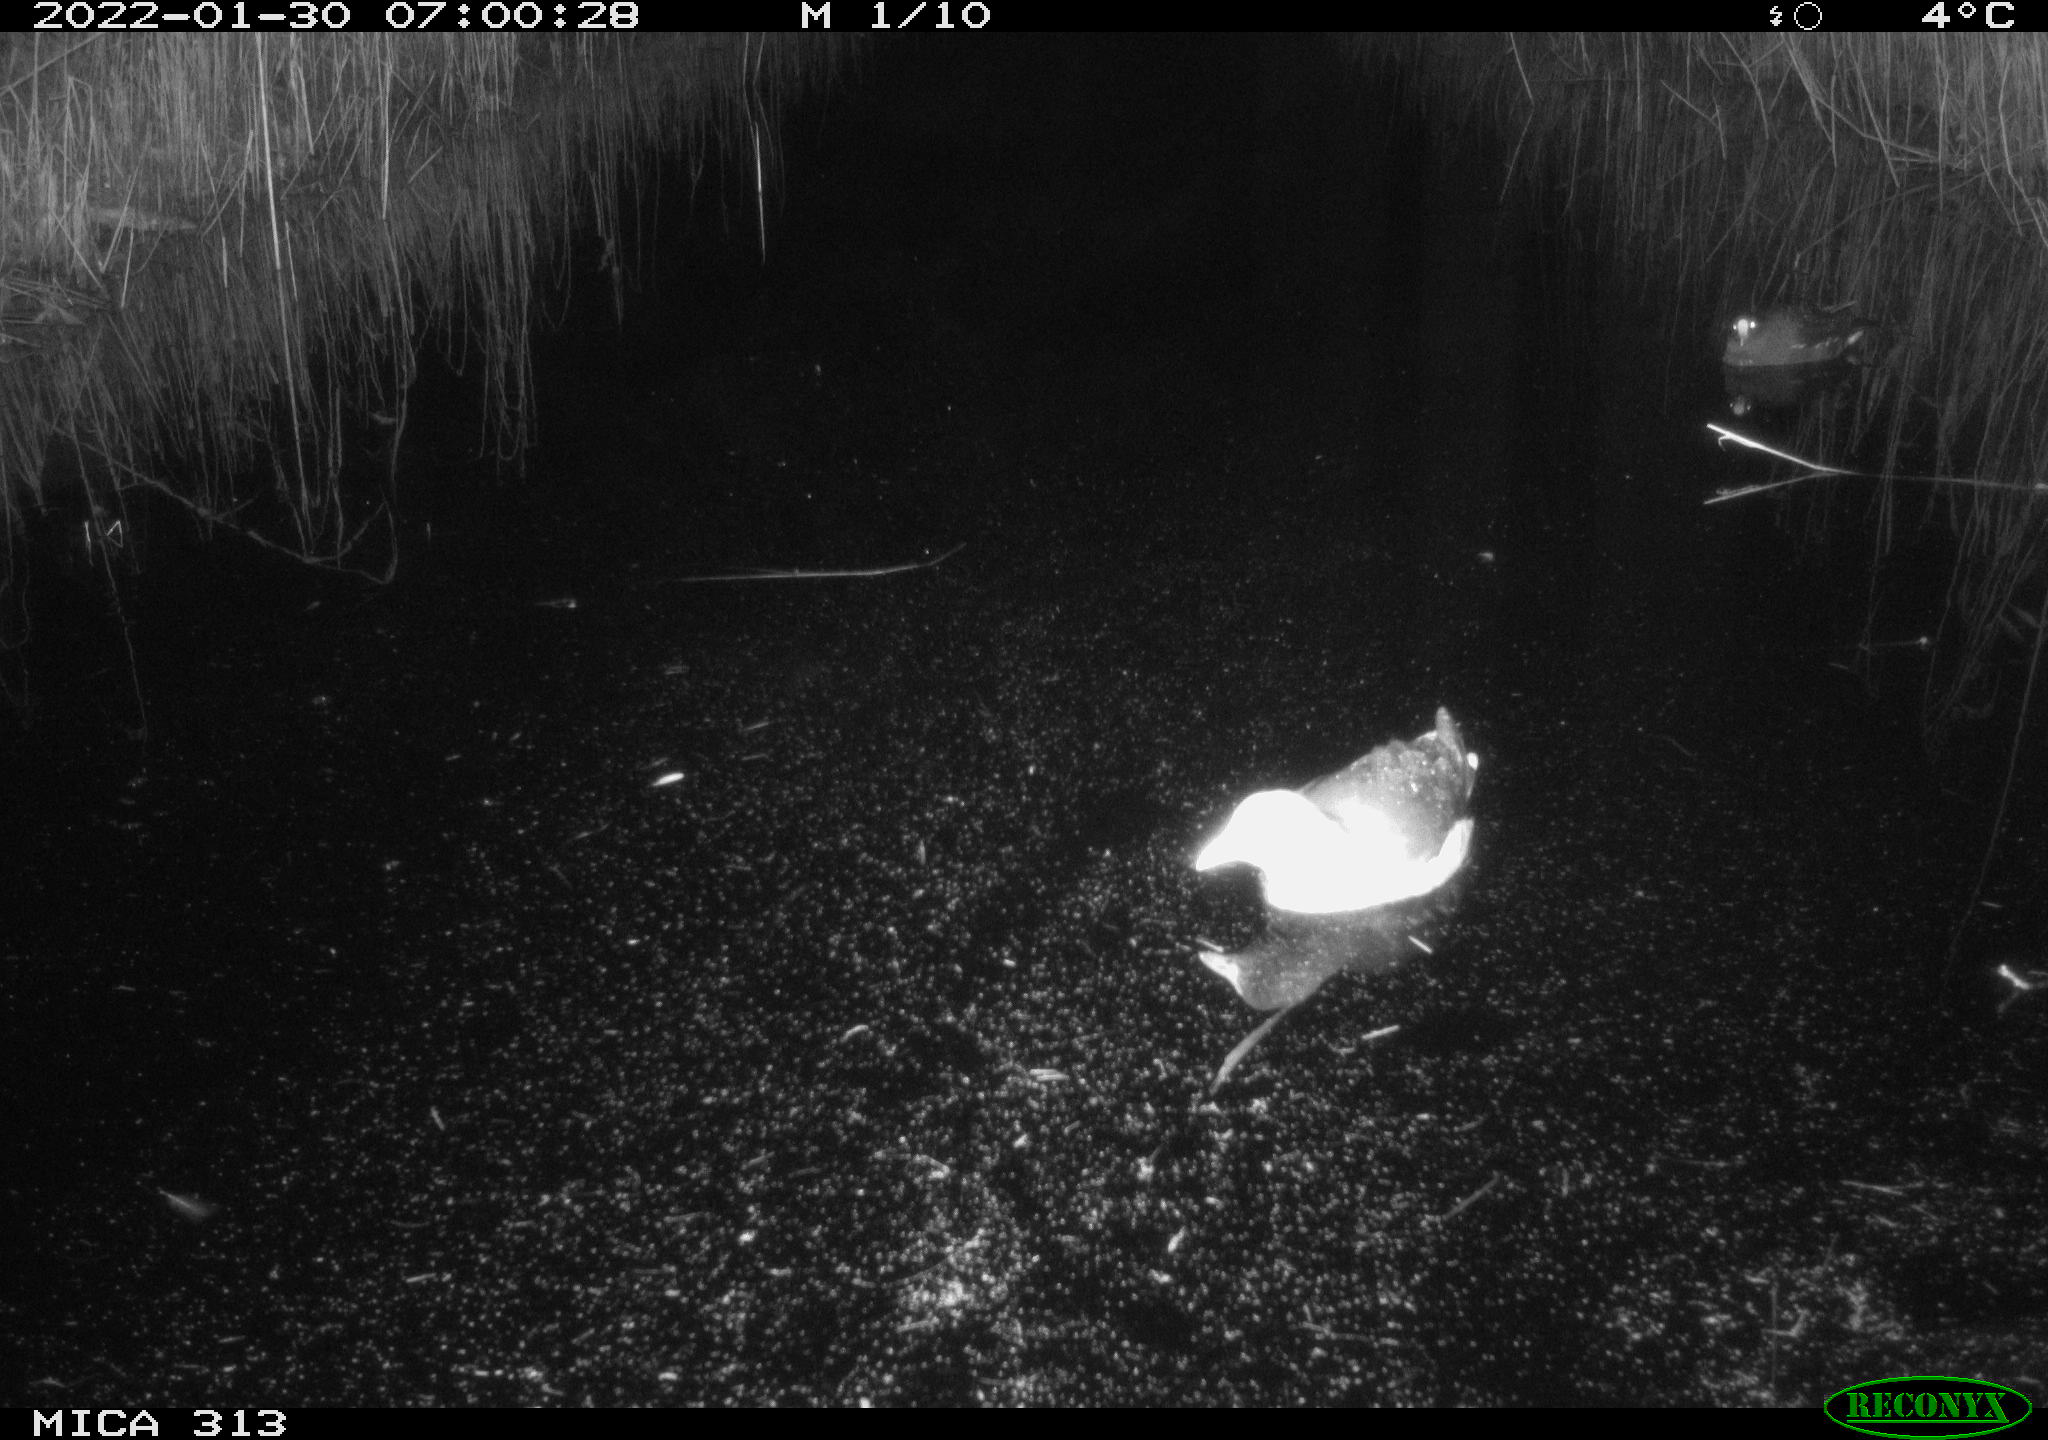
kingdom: Animalia
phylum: Chordata
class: Aves
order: Gruiformes
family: Rallidae
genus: Fulica
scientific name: Fulica atra
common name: Eurasian coot
